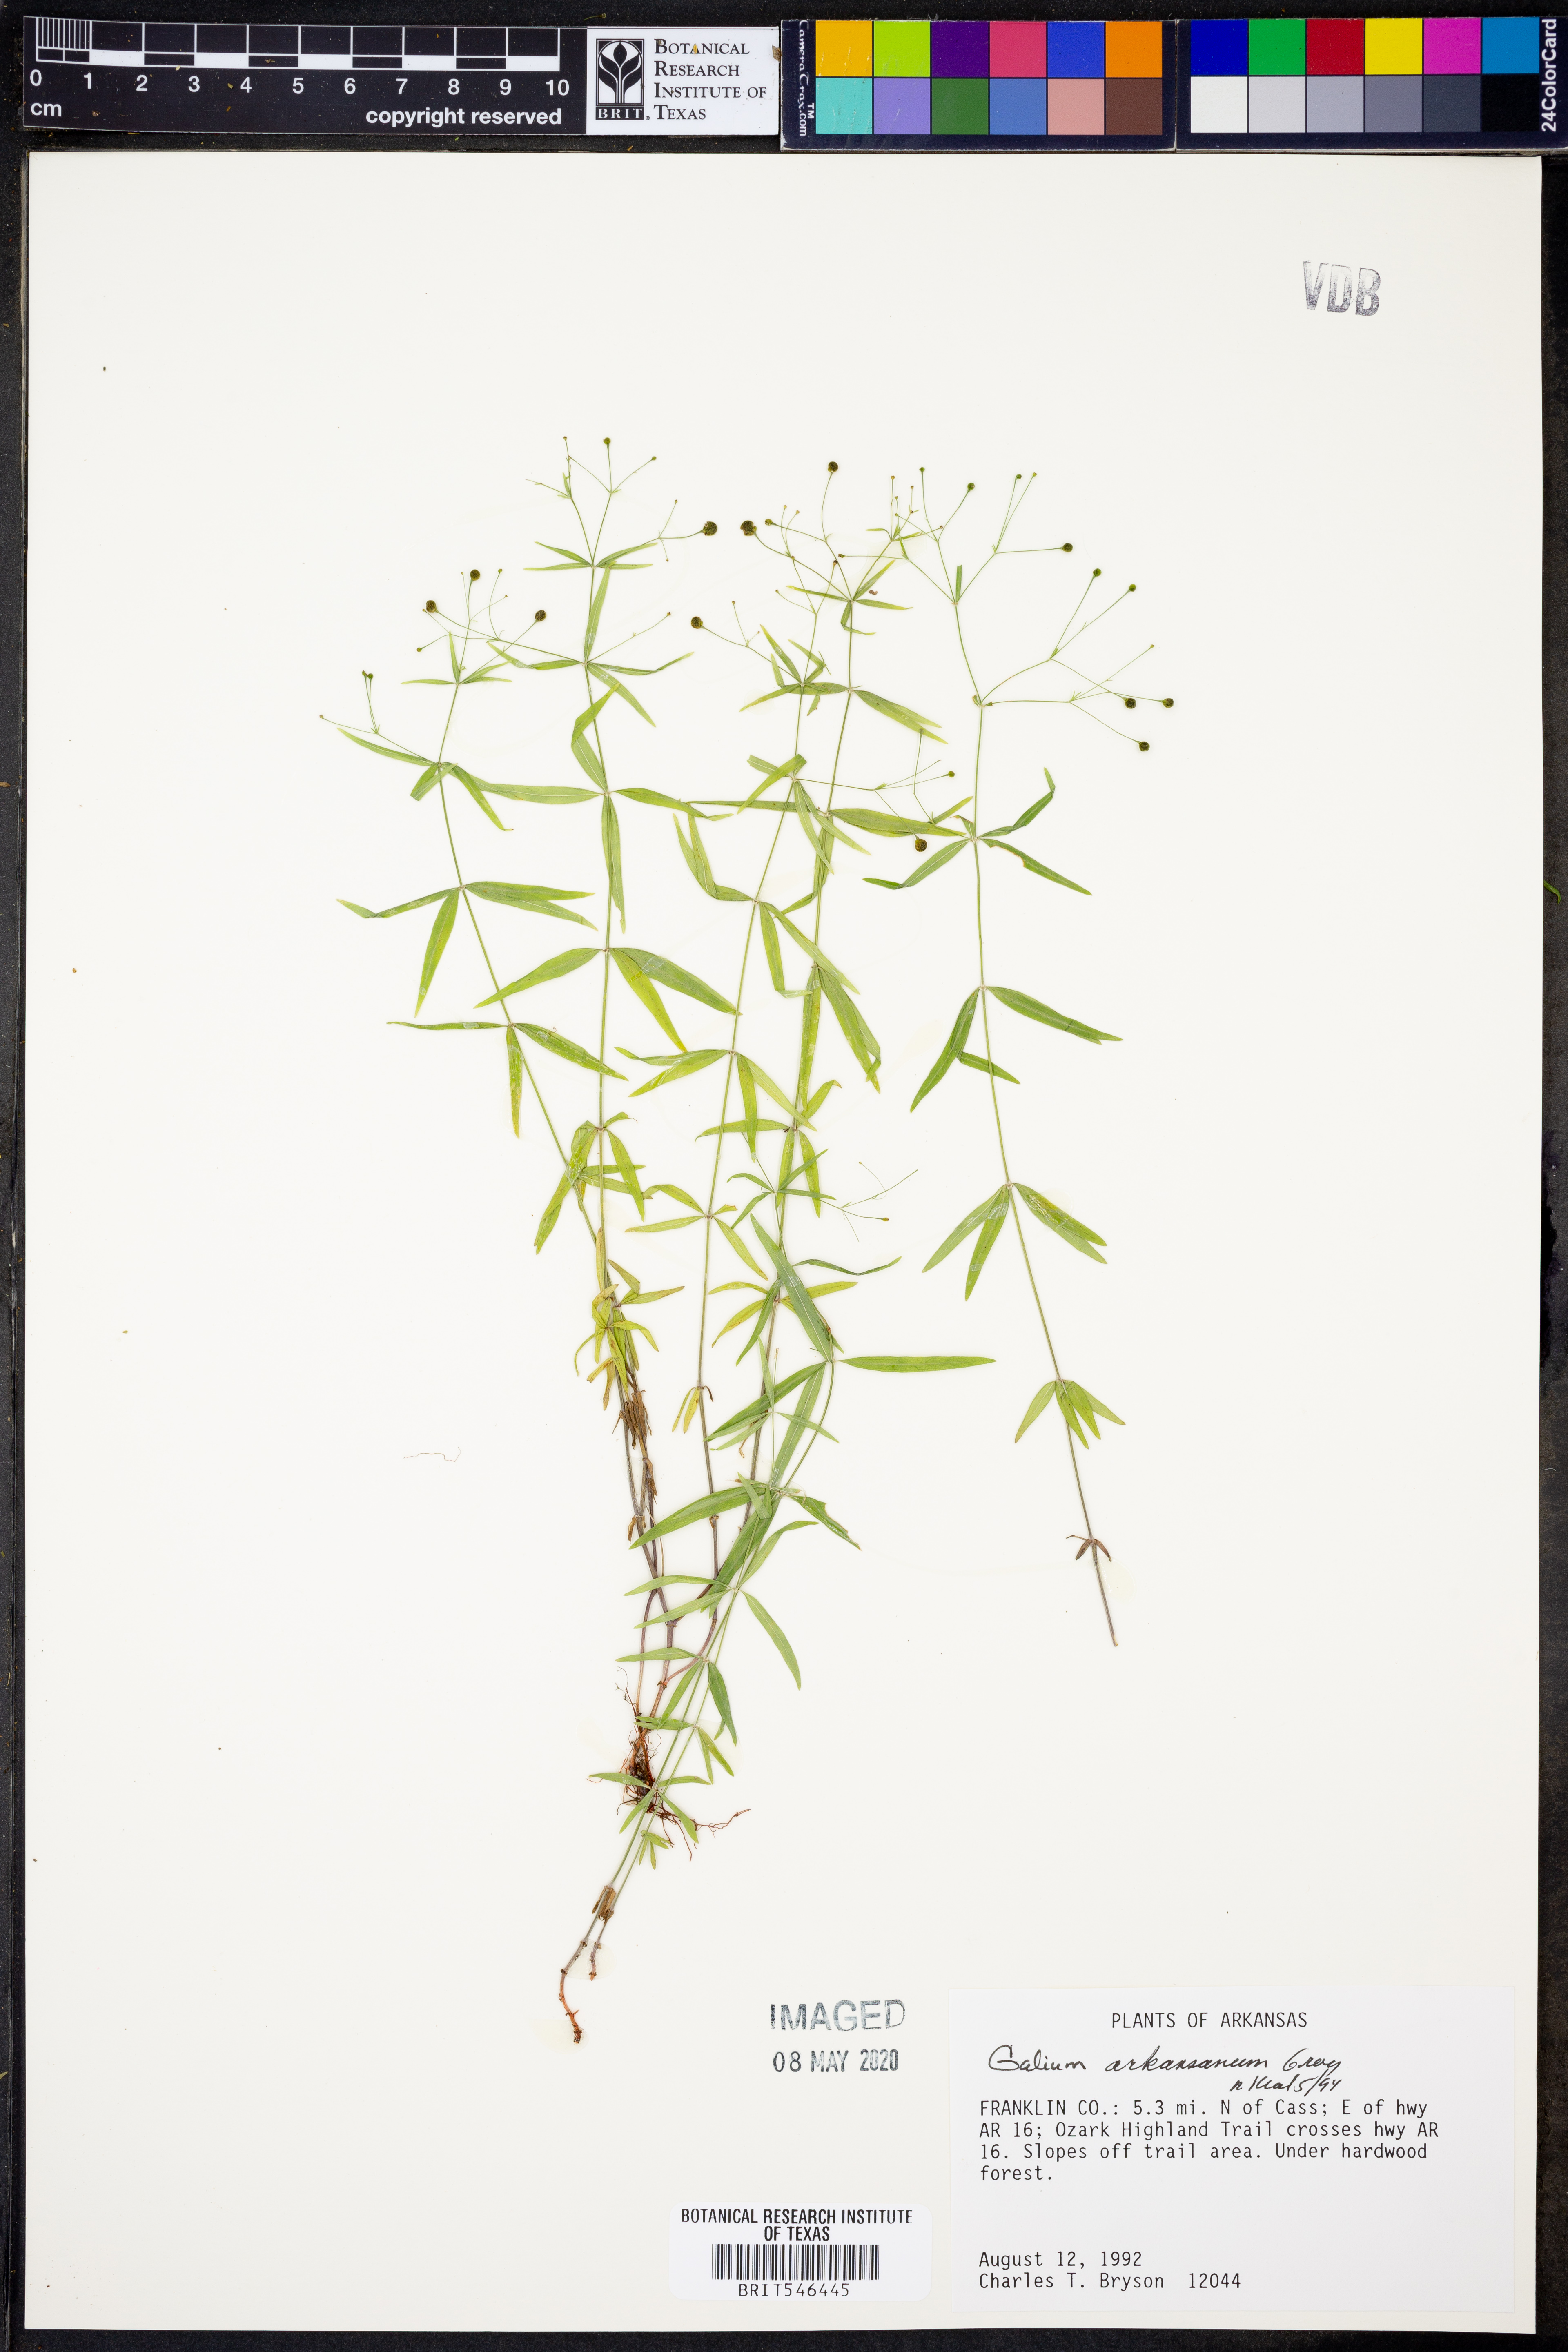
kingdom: Plantae
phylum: Tracheophyta
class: Magnoliopsida
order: Gentianales
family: Rubiaceae
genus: Galium
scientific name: Galium arkansanum
